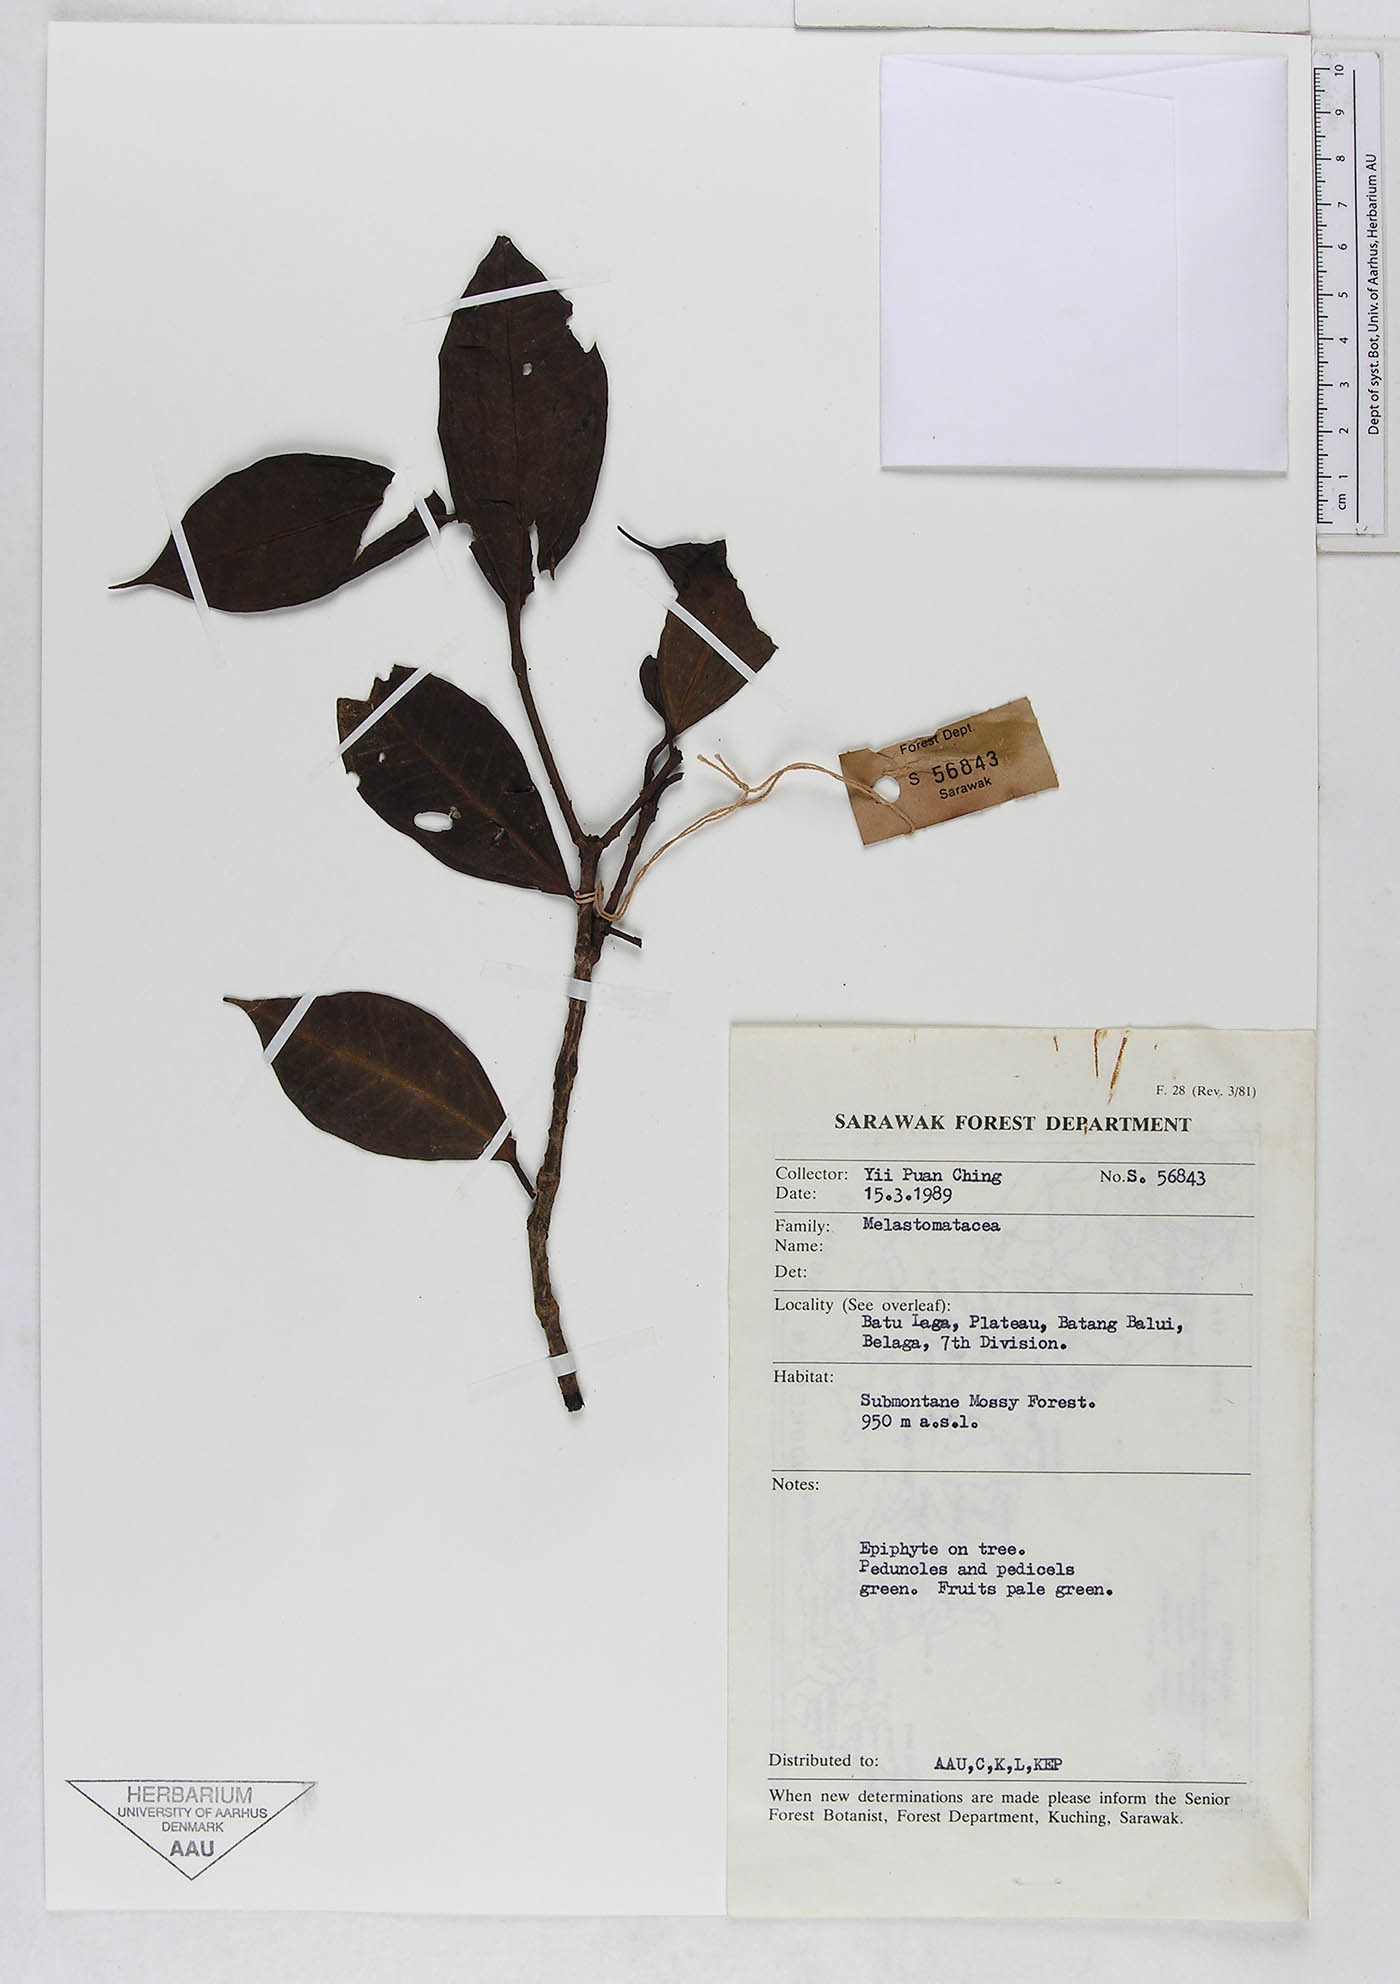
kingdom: Plantae
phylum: Tracheophyta
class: Magnoliopsida
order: Myrtales
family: Melastomataceae
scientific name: Melastomataceae
